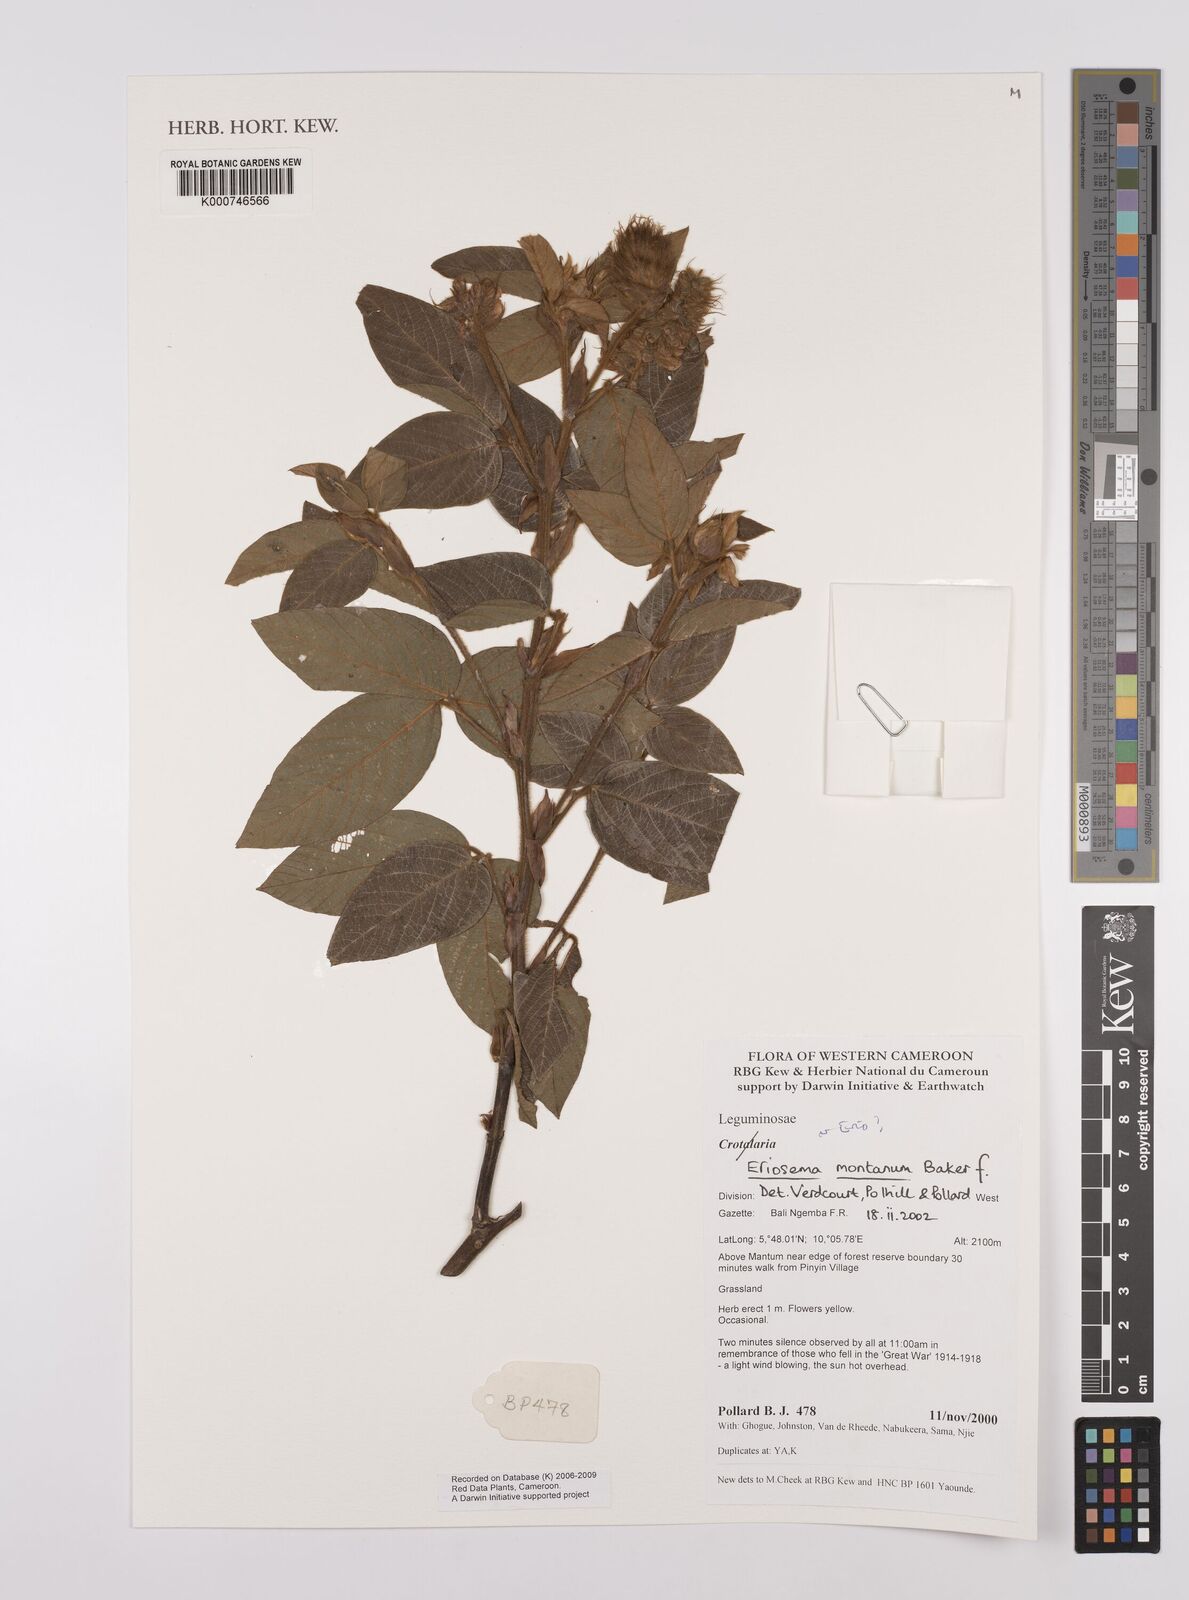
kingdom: Plantae
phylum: Tracheophyta
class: Magnoliopsida
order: Fabales
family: Fabaceae
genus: Eriosema
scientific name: Eriosema montanum
